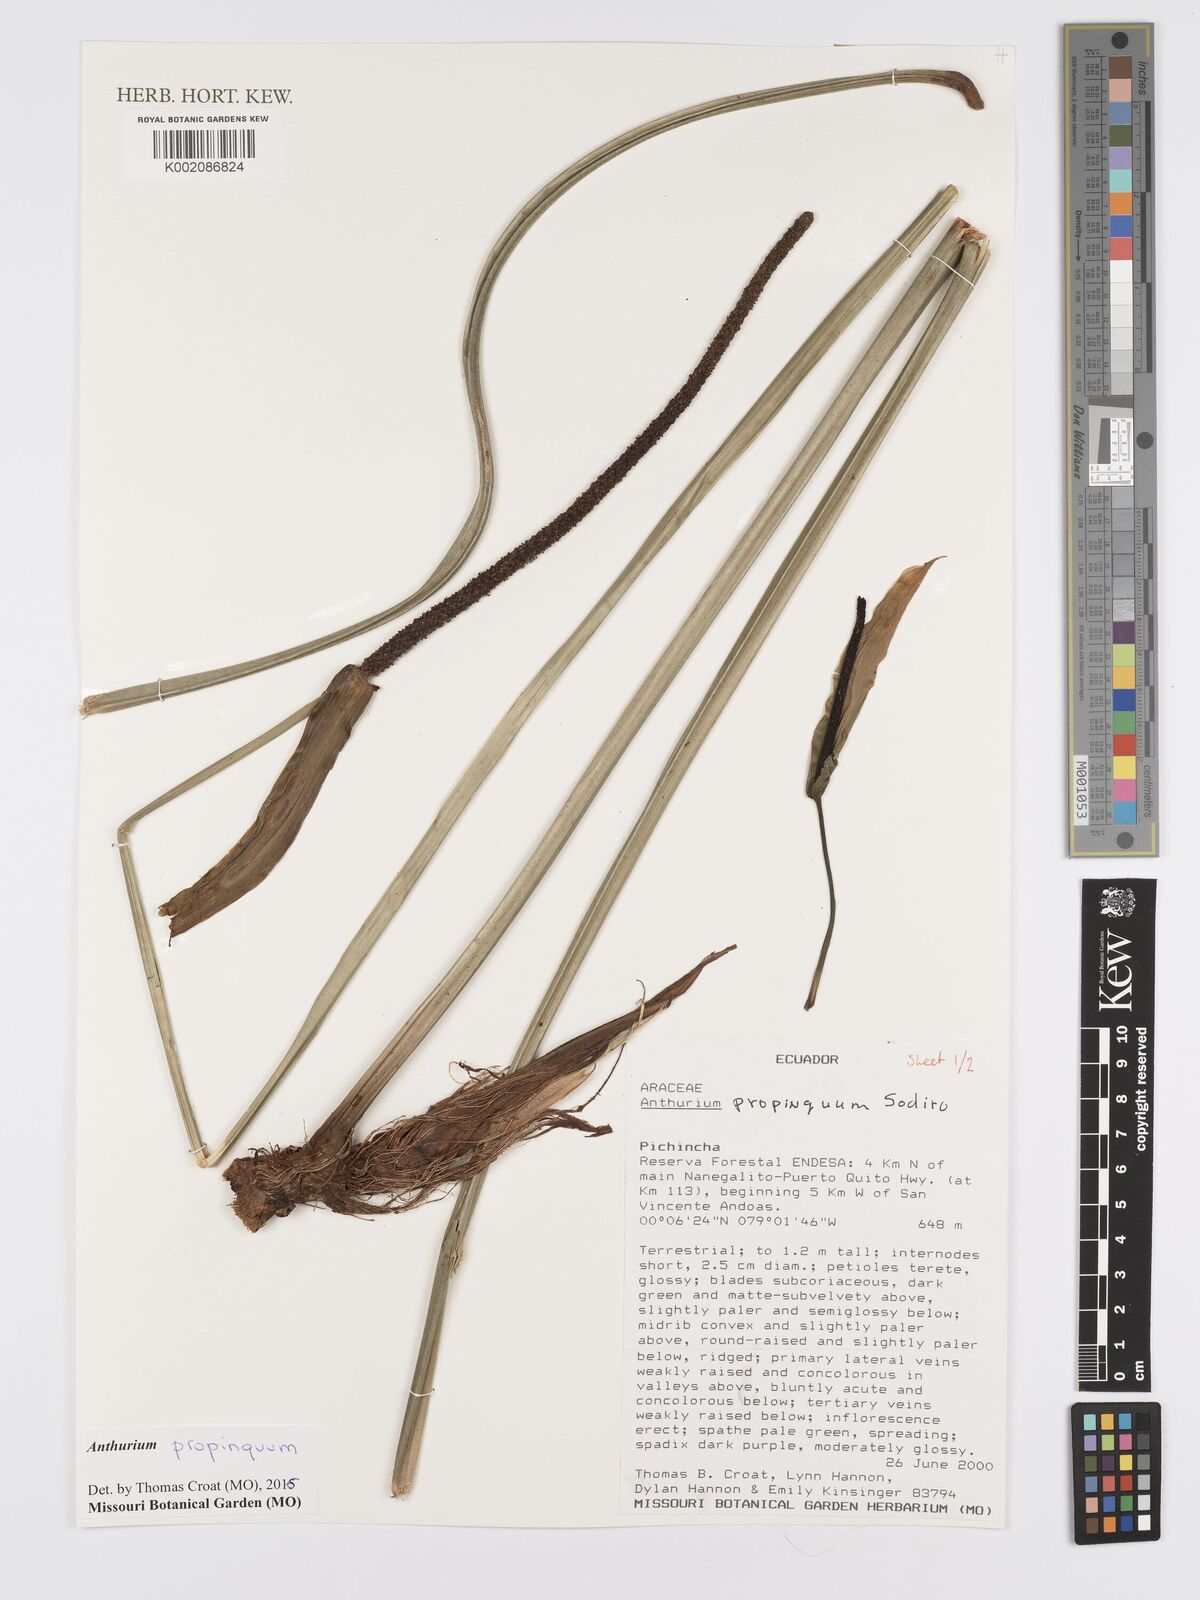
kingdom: Plantae
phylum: Tracheophyta
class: Liliopsida
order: Alismatales
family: Araceae
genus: Anthurium
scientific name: Anthurium cuspidatum
